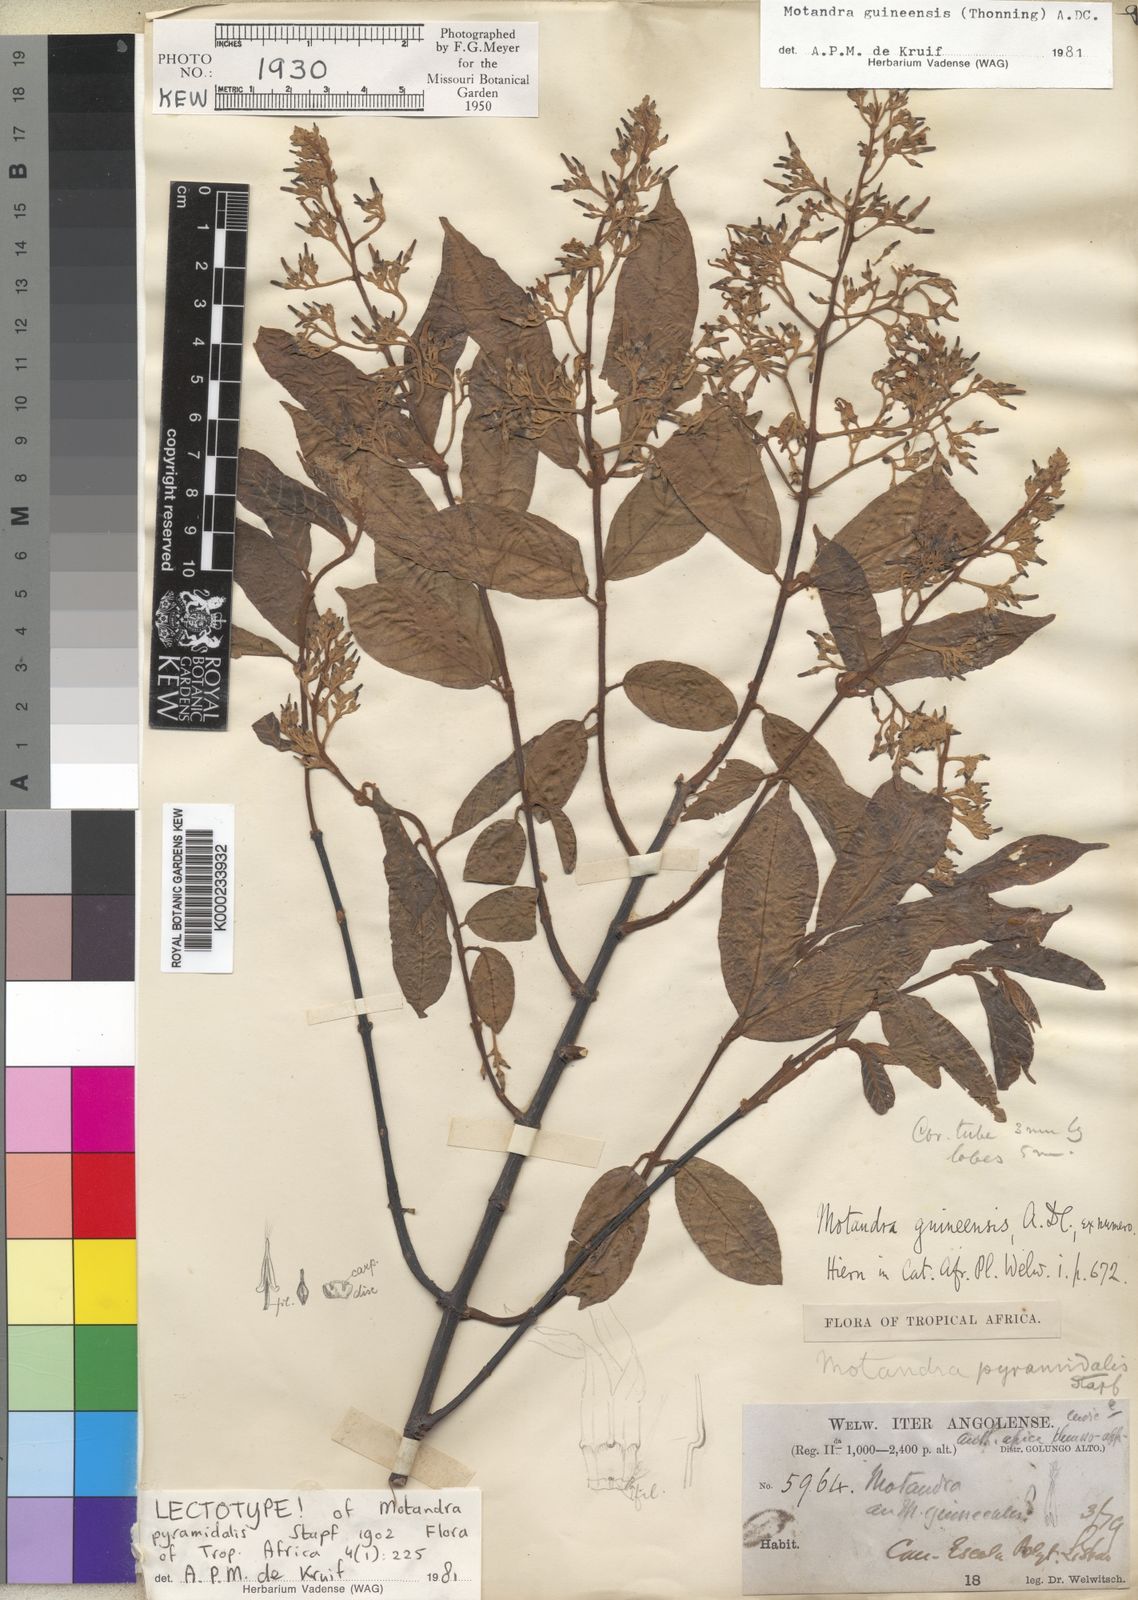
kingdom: Plantae
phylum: Tracheophyta
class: Magnoliopsida
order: Gentianales
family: Apocynaceae
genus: Motandra
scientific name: Motandra paniculata
